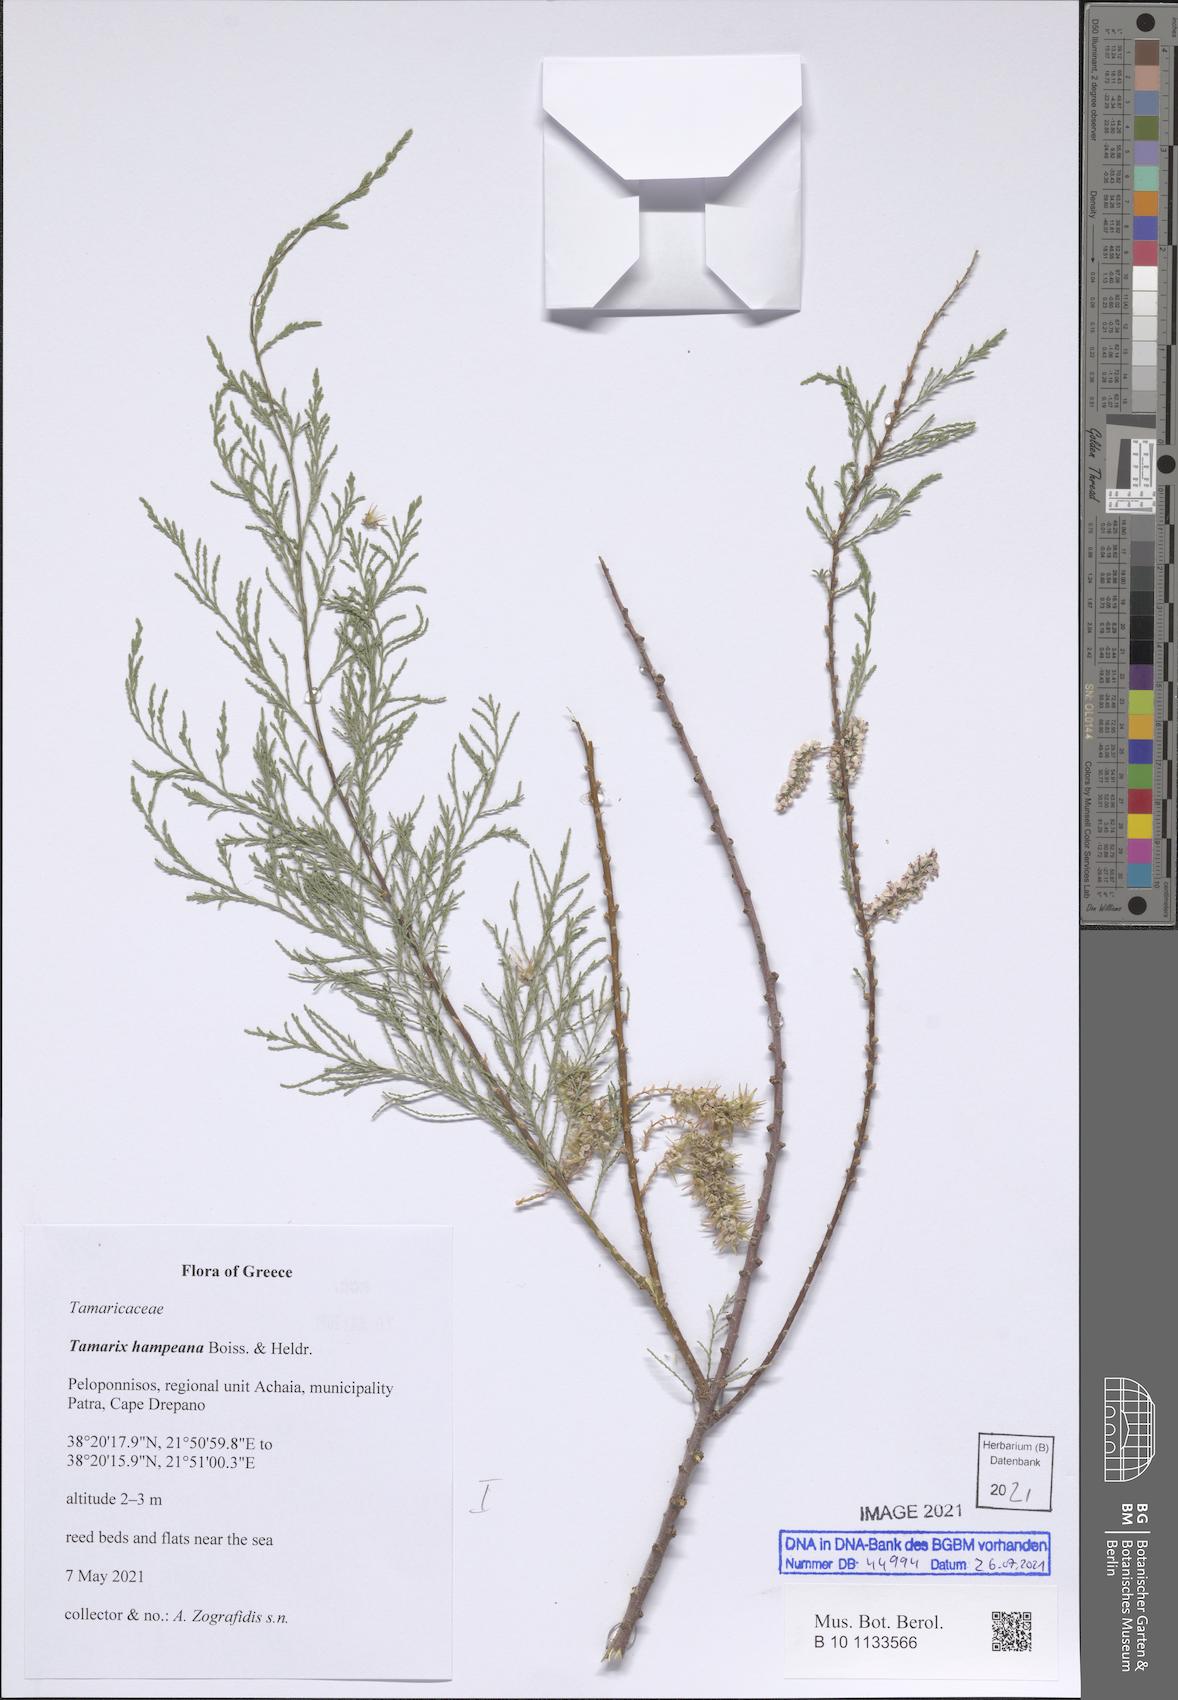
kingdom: Plantae
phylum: Tracheophyta
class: Magnoliopsida
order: Caryophyllales
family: Tamaricaceae
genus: Tamarix
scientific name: Tamarix hampeana
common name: Hampe’s tamarisk
